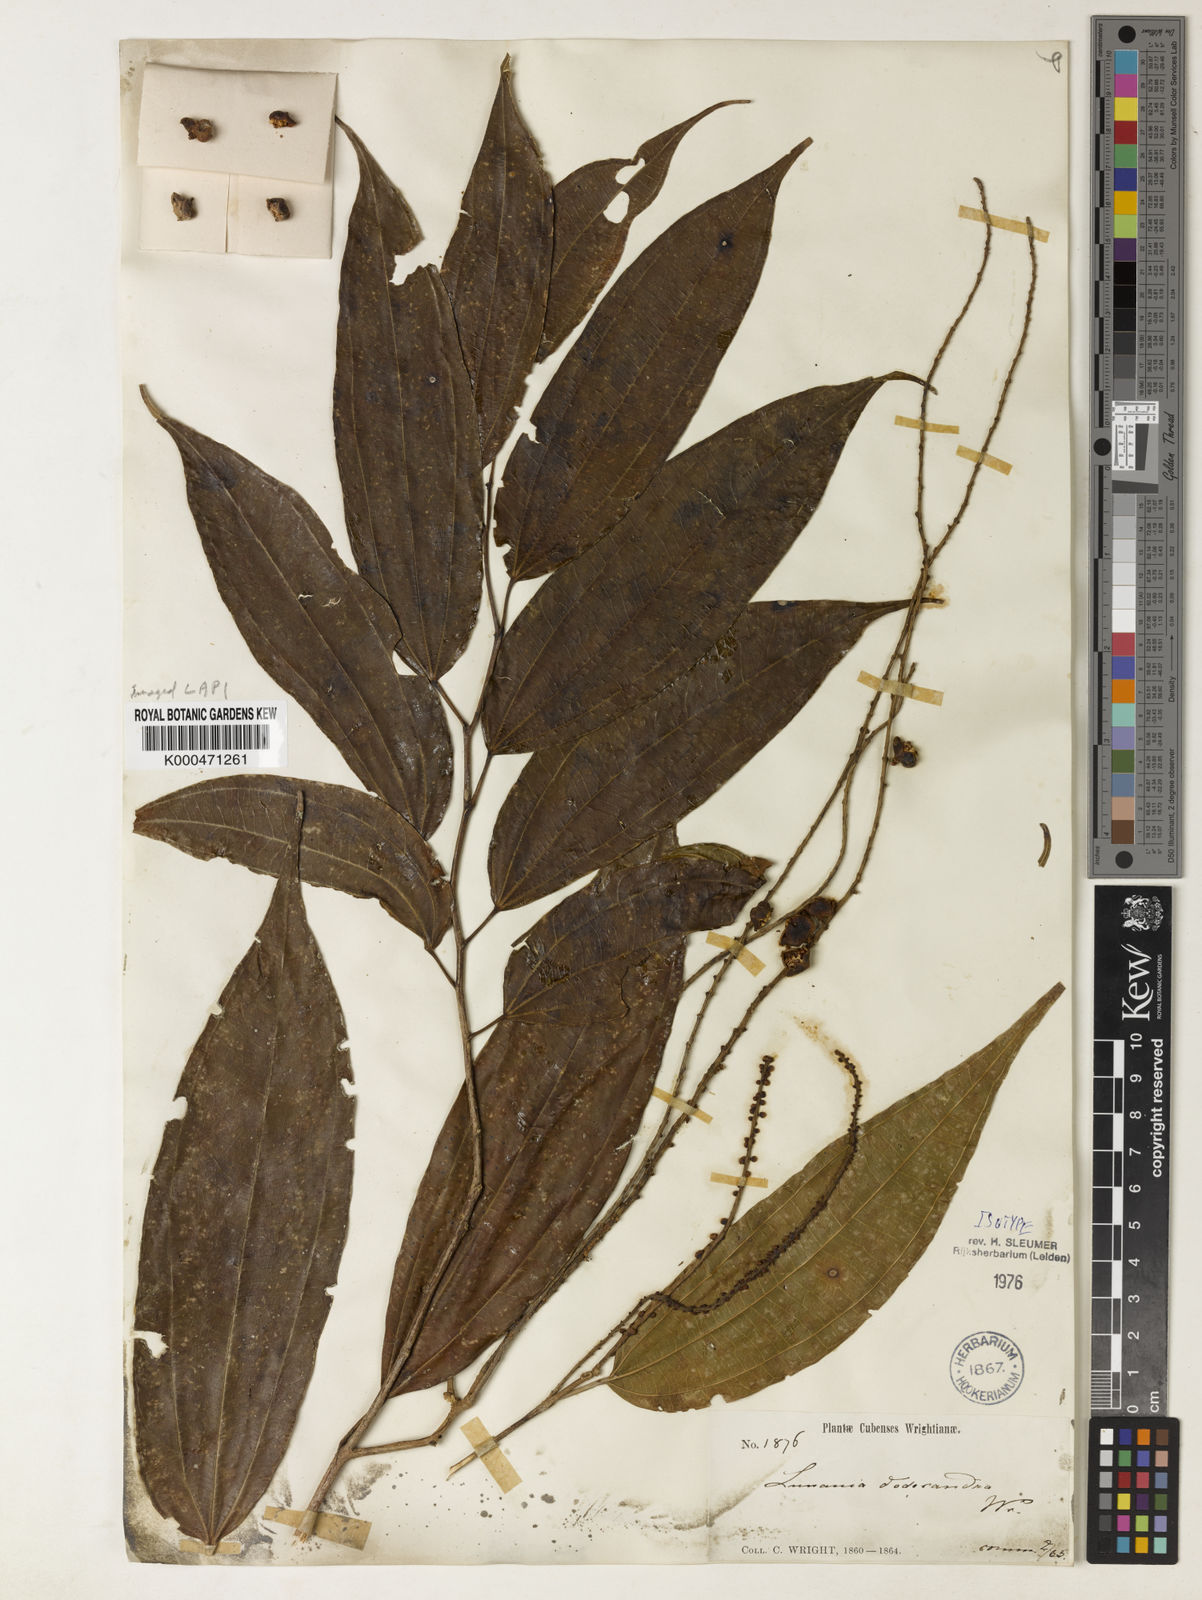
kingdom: Plantae
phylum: Tracheophyta
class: Magnoliopsida
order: Malpighiales
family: Salicaceae
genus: Lunania
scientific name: Lunania
